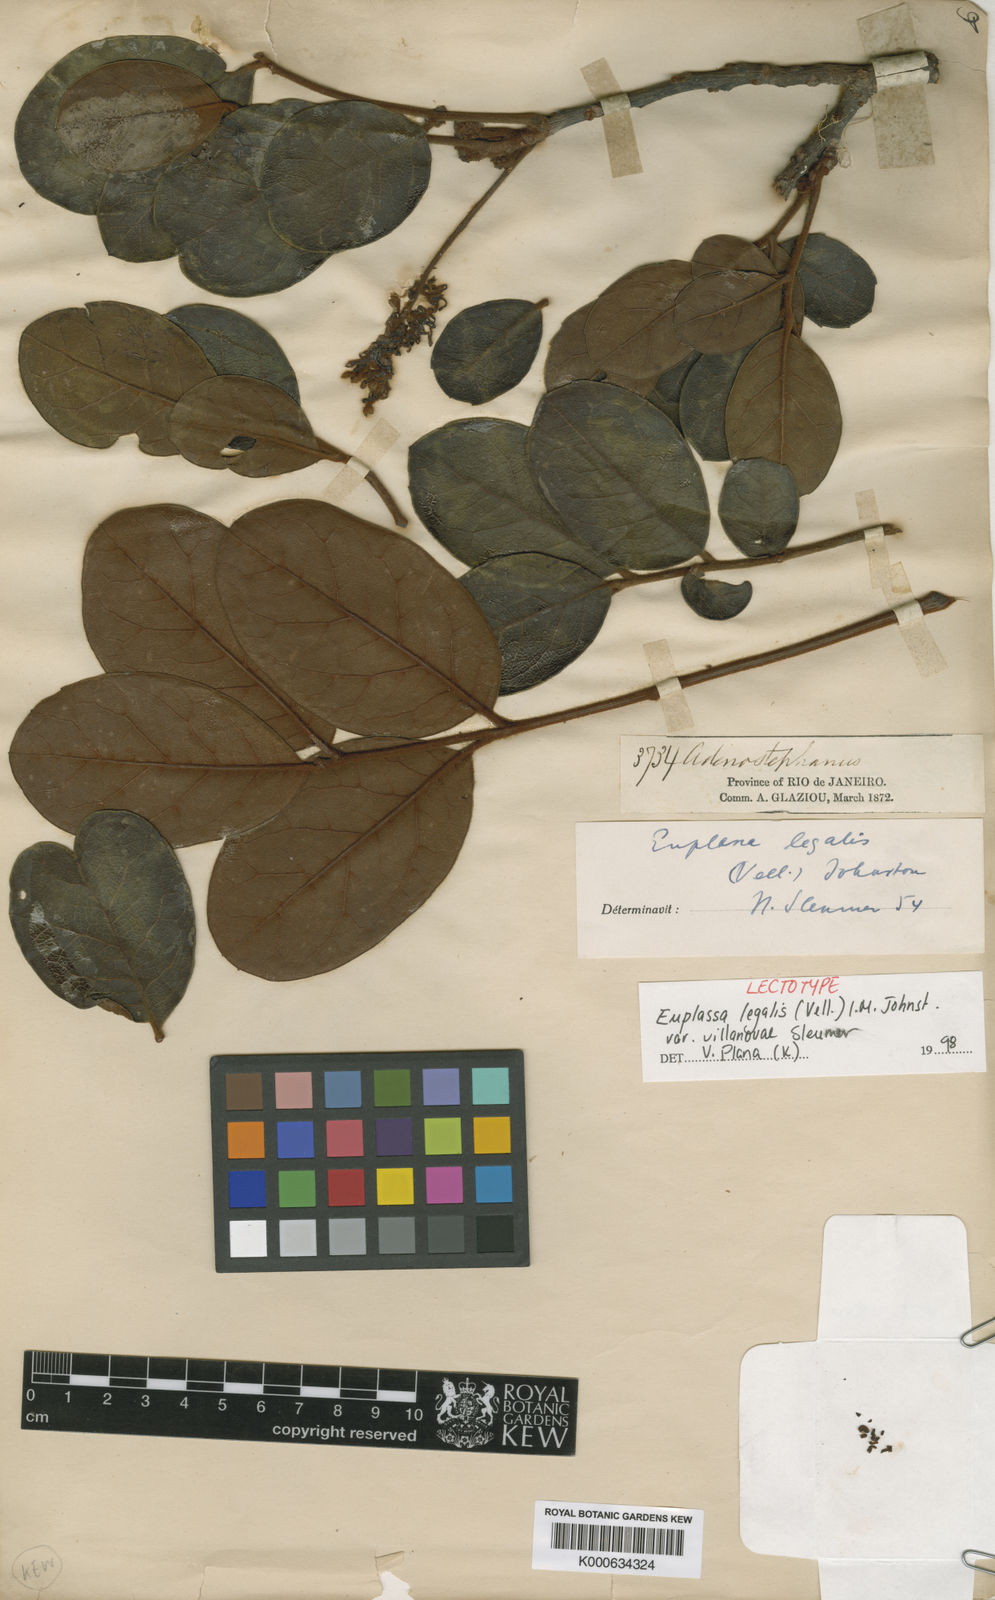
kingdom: Plantae
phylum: Tracheophyta
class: Magnoliopsida
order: Proteales
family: Proteaceae
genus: Euplassa
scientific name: Euplassa legalis
